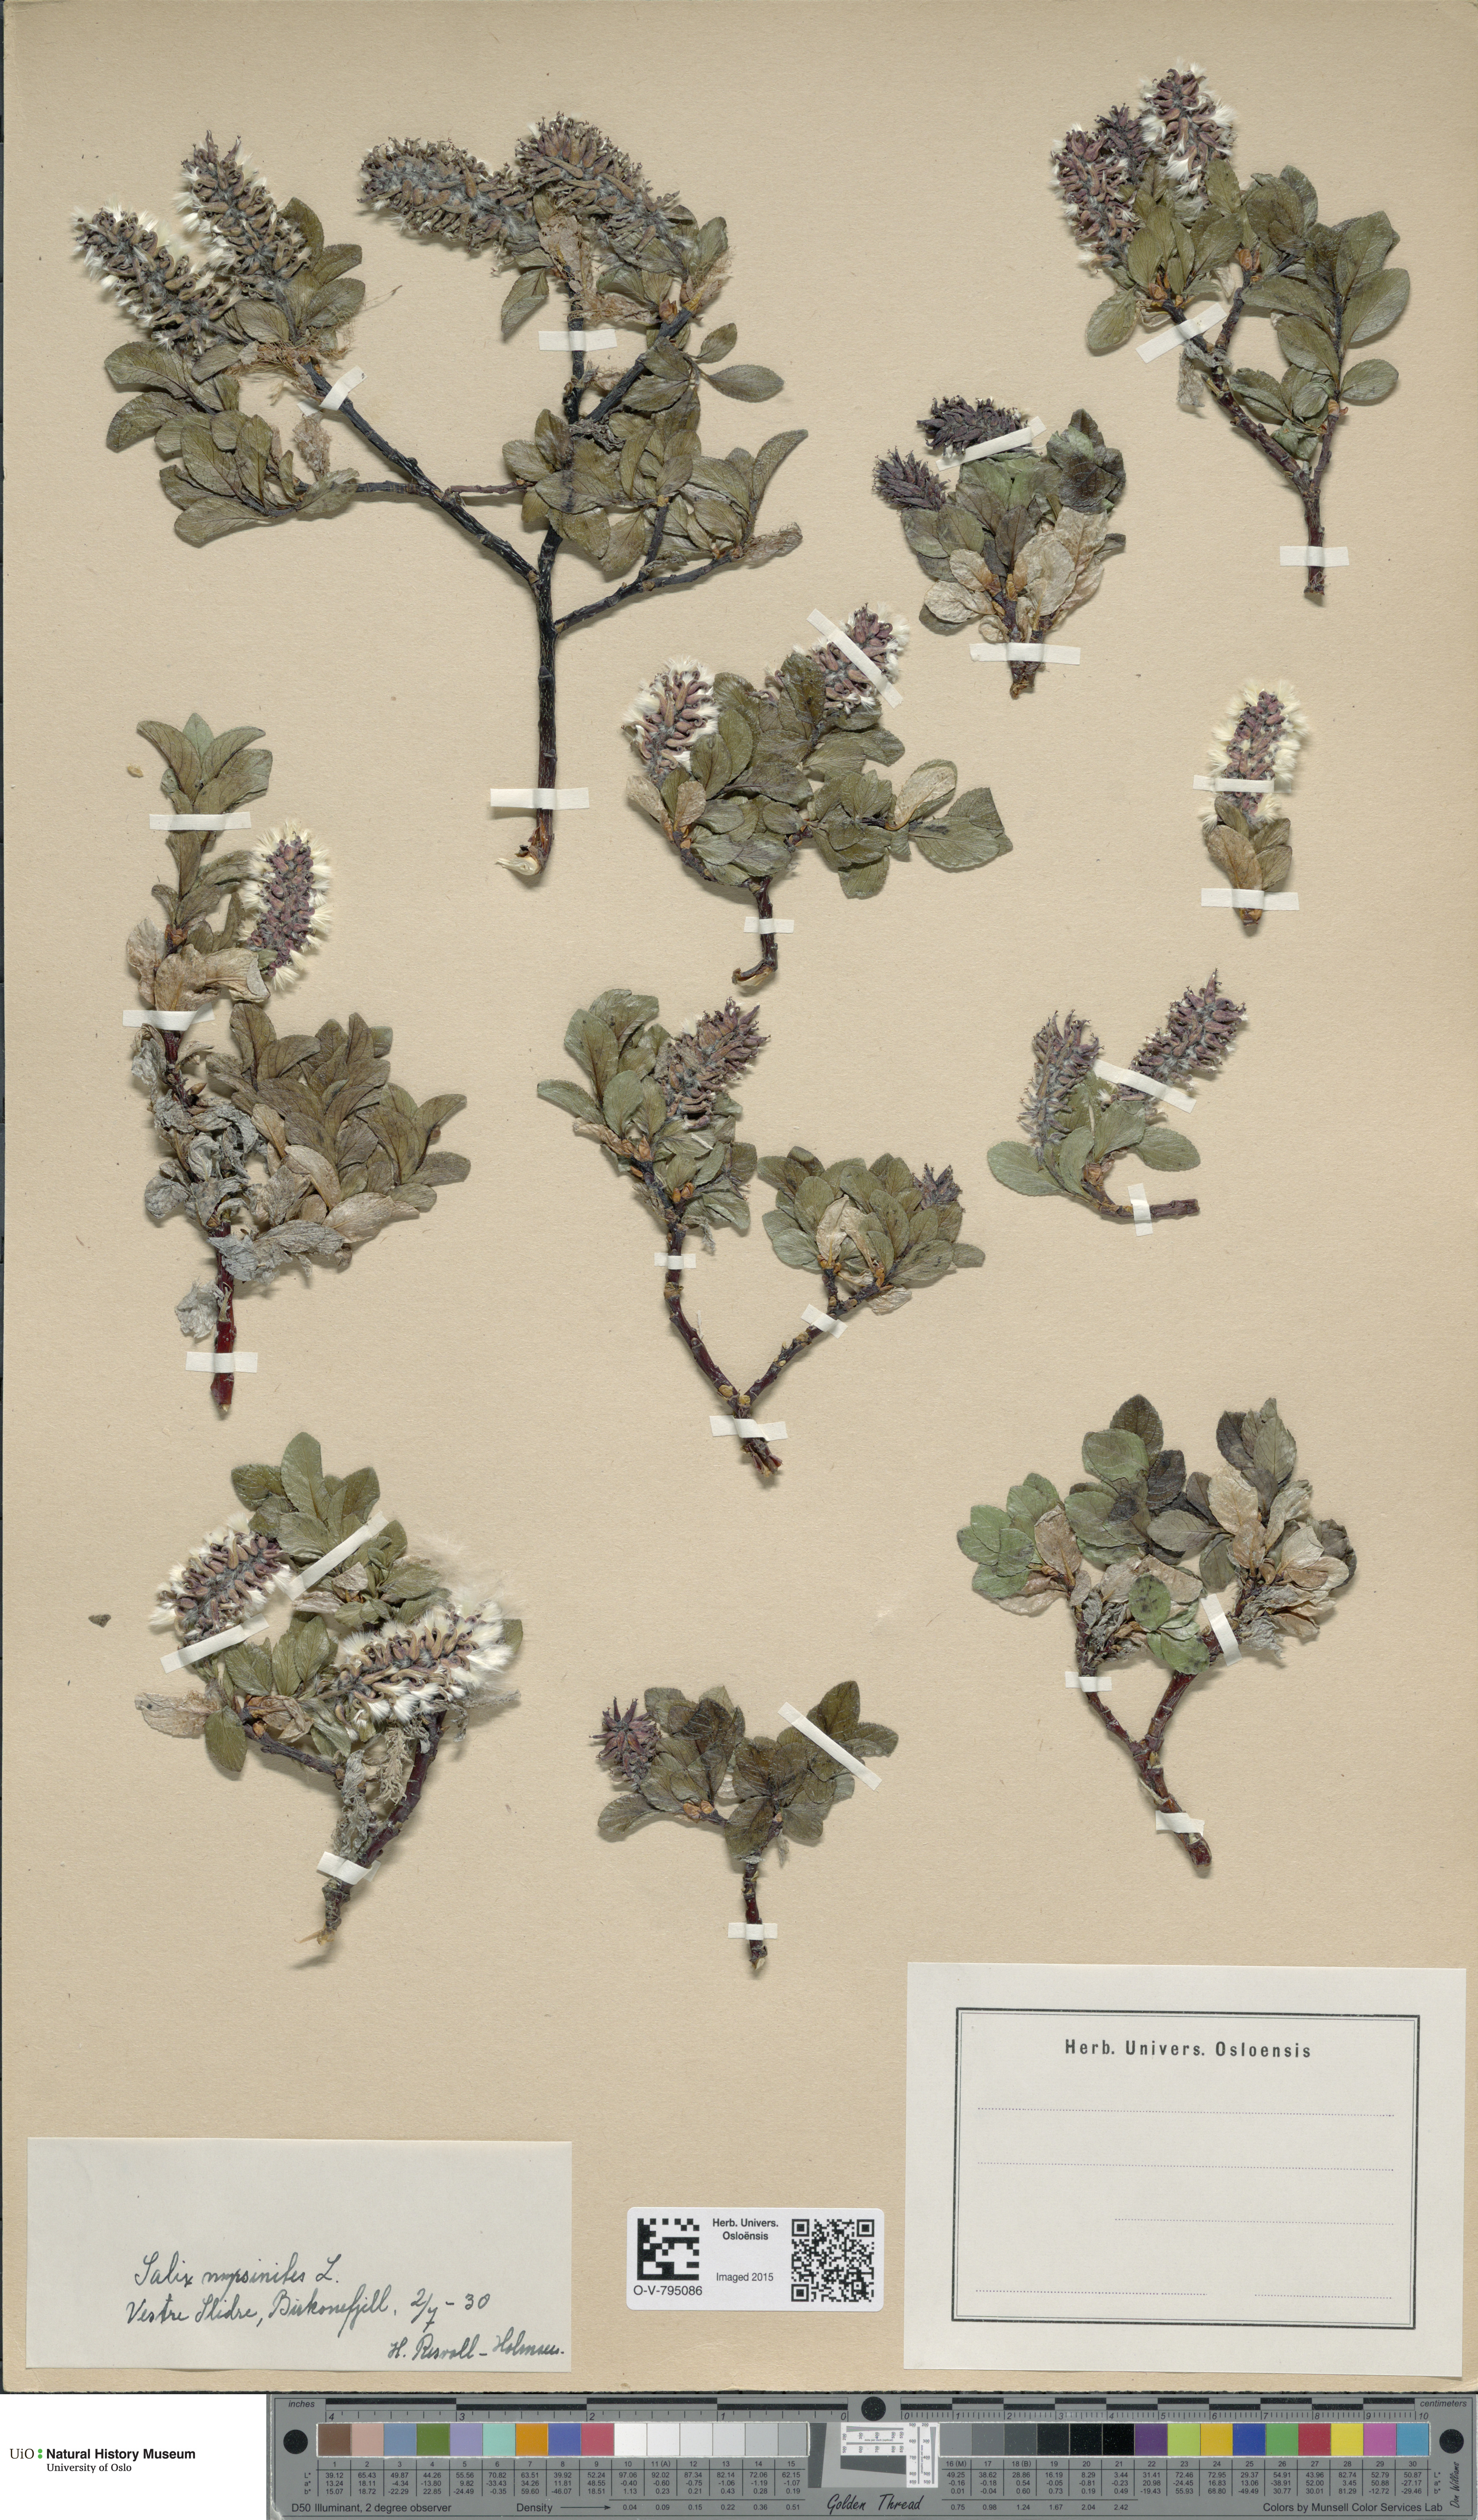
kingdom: Plantae
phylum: Tracheophyta
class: Magnoliopsida
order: Malpighiales
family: Salicaceae
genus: Salix
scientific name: Salix myrsinites
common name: Myrtle willow
